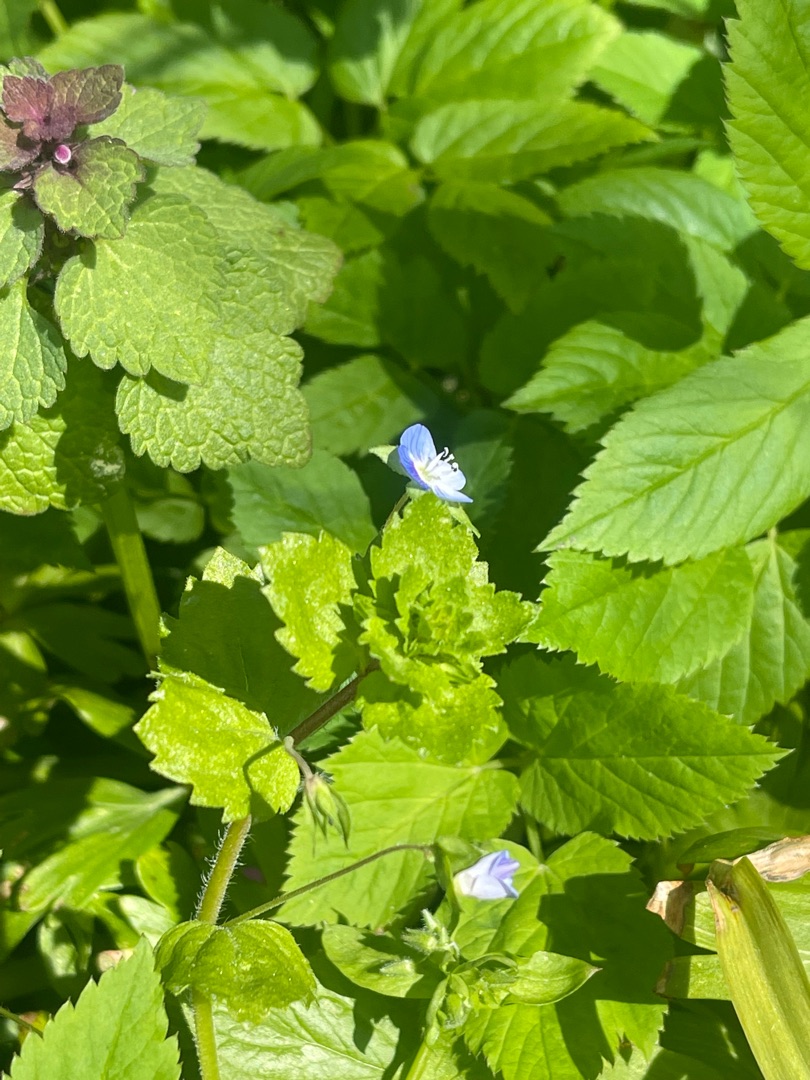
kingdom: Plantae
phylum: Tracheophyta
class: Magnoliopsida
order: Lamiales
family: Plantaginaceae
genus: Veronica
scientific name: Veronica persica
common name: Storkronet ærenpris
